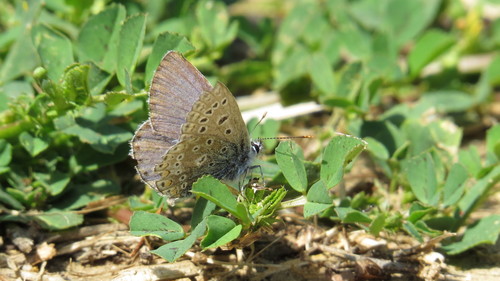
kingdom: Animalia
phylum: Arthropoda
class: Insecta
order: Lepidoptera
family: Lycaenidae
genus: Polyommatus
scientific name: Polyommatus icarus
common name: Common blue
